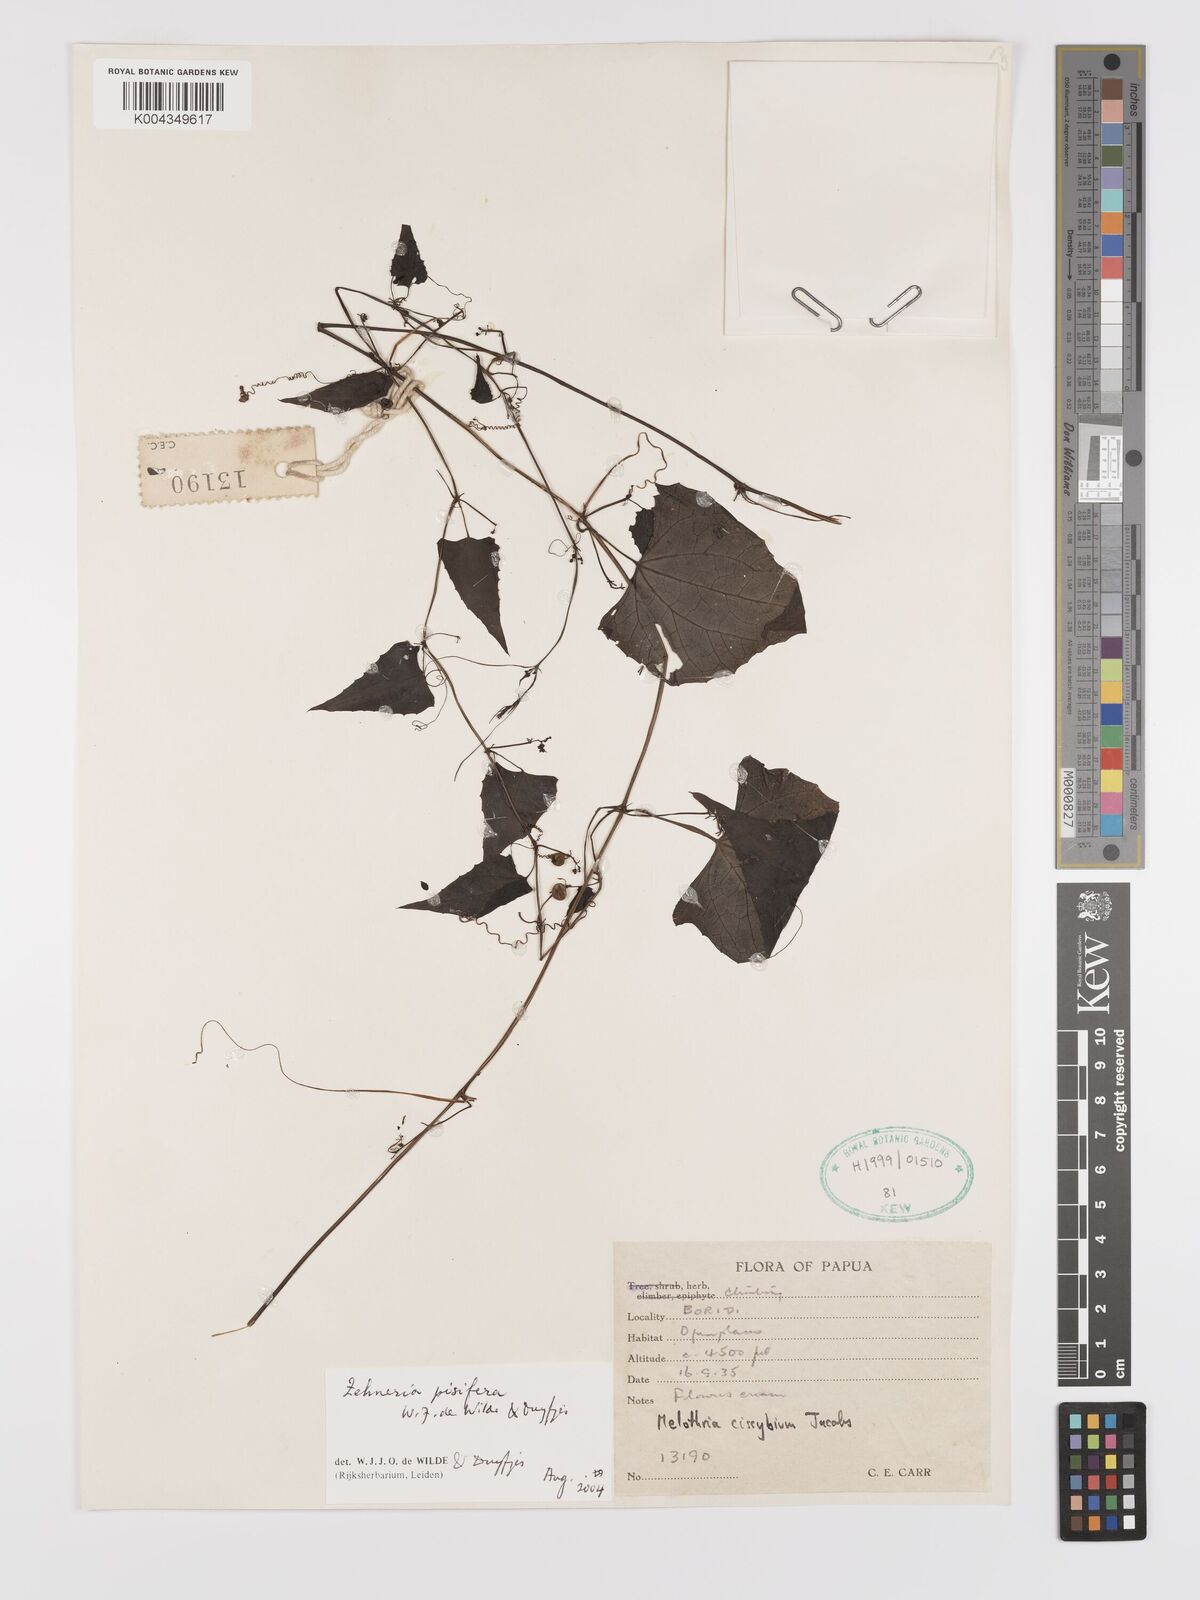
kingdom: Plantae
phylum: Tracheophyta
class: Magnoliopsida
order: Cucurbitales
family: Cucurbitaceae
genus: Zehneria
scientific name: Zehneria pisifera
